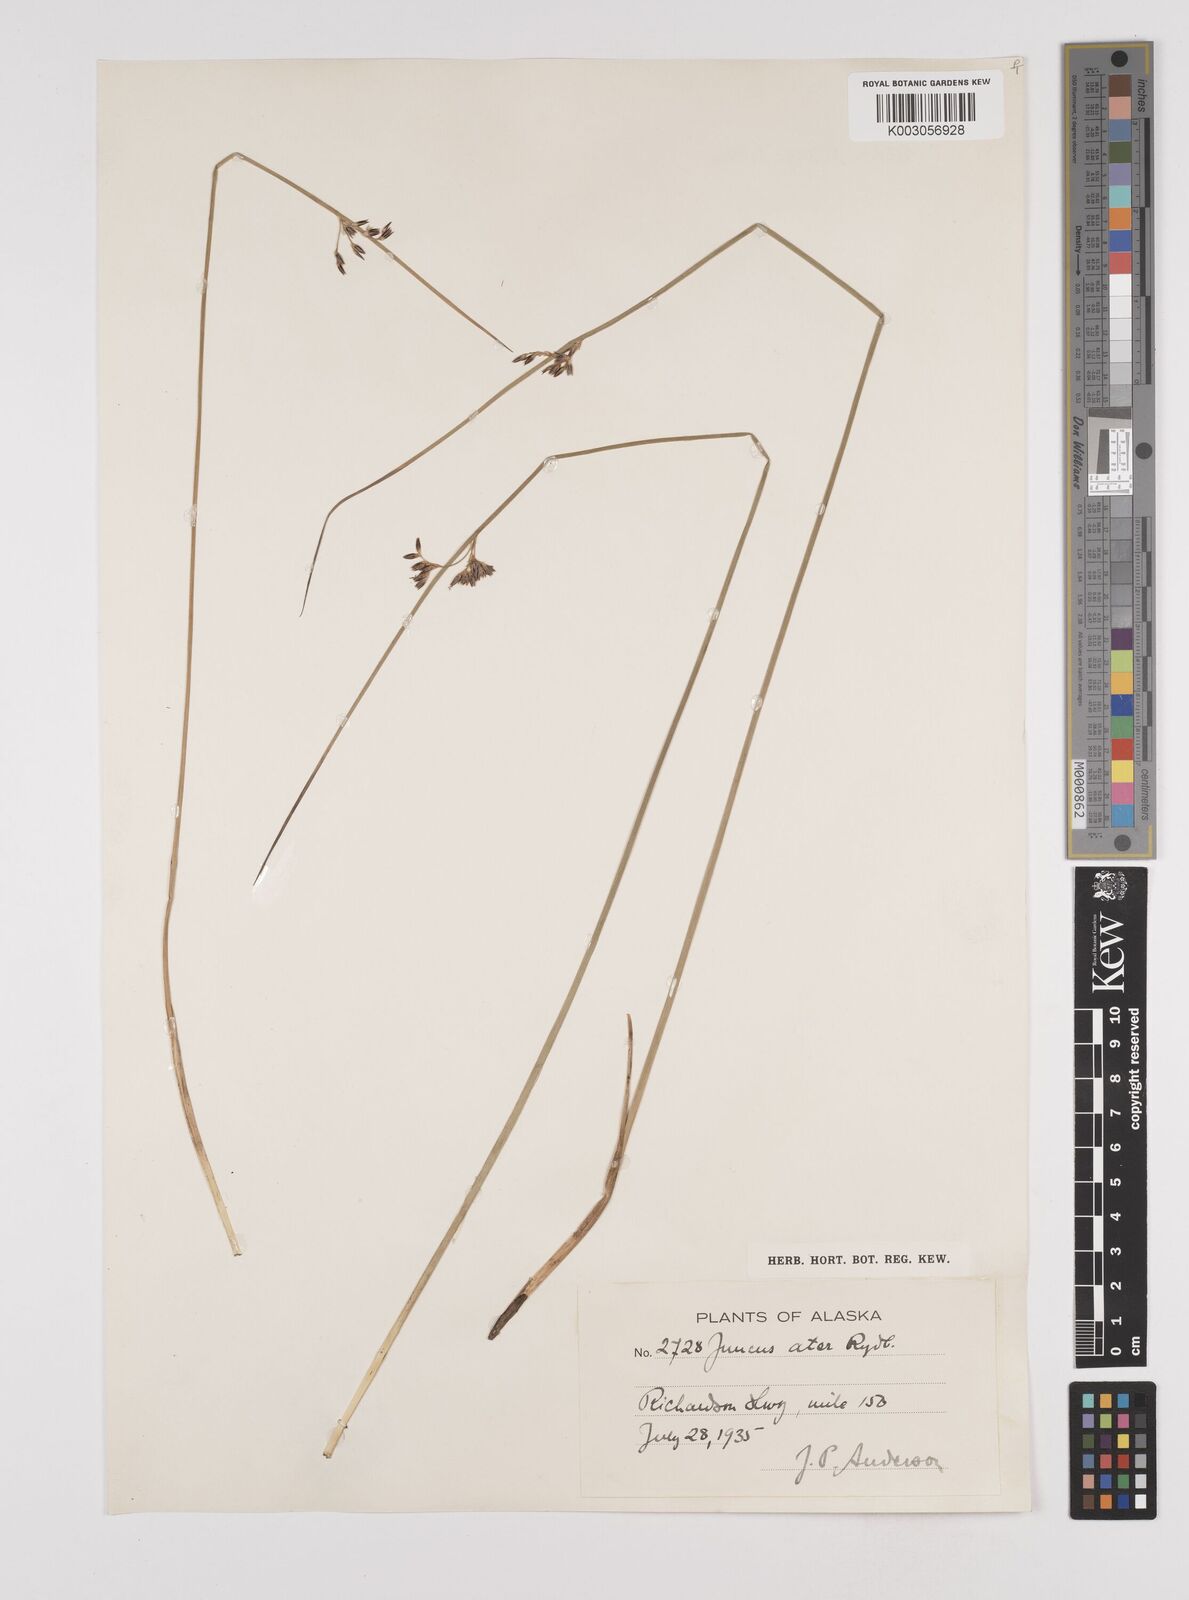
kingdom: Plantae
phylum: Tracheophyta
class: Liliopsida
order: Poales
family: Juncaceae
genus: Juncus
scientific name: Juncus balticus
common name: Baltic rush
